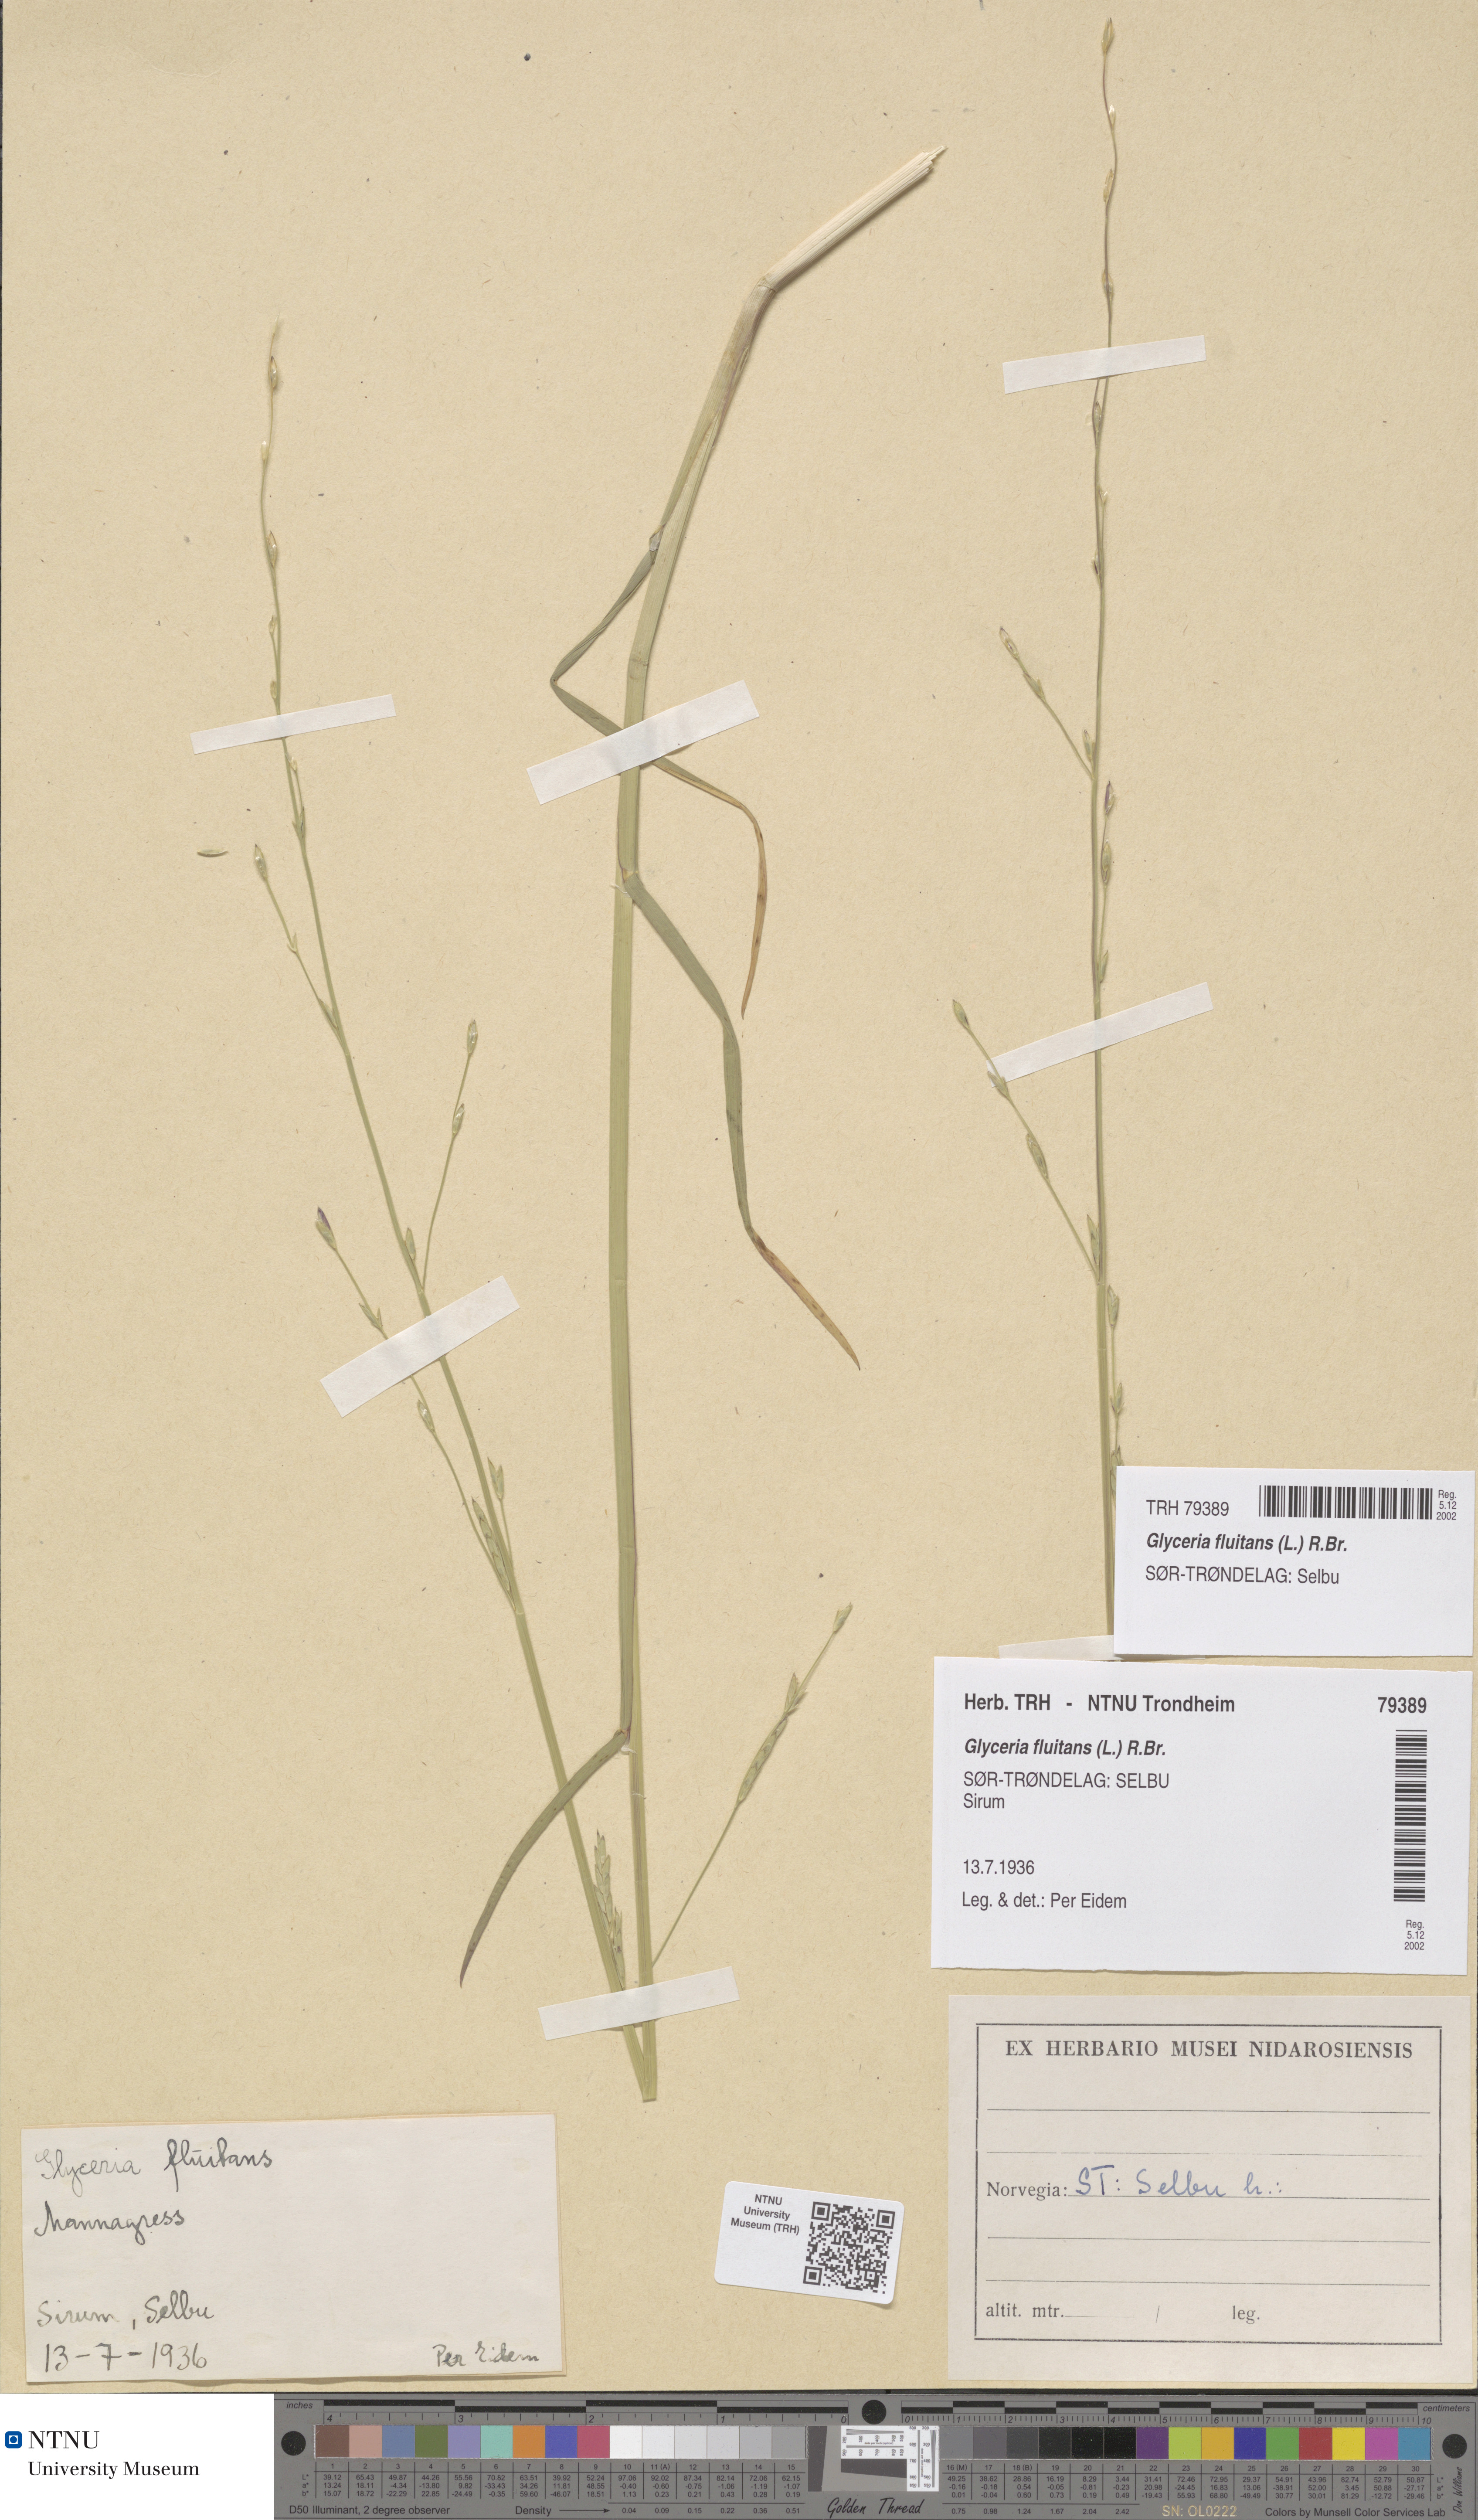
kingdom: Plantae
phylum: Tracheophyta
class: Liliopsida
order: Poales
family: Poaceae
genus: Glyceria
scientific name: Glyceria fluitans
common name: Floating sweet-grass
